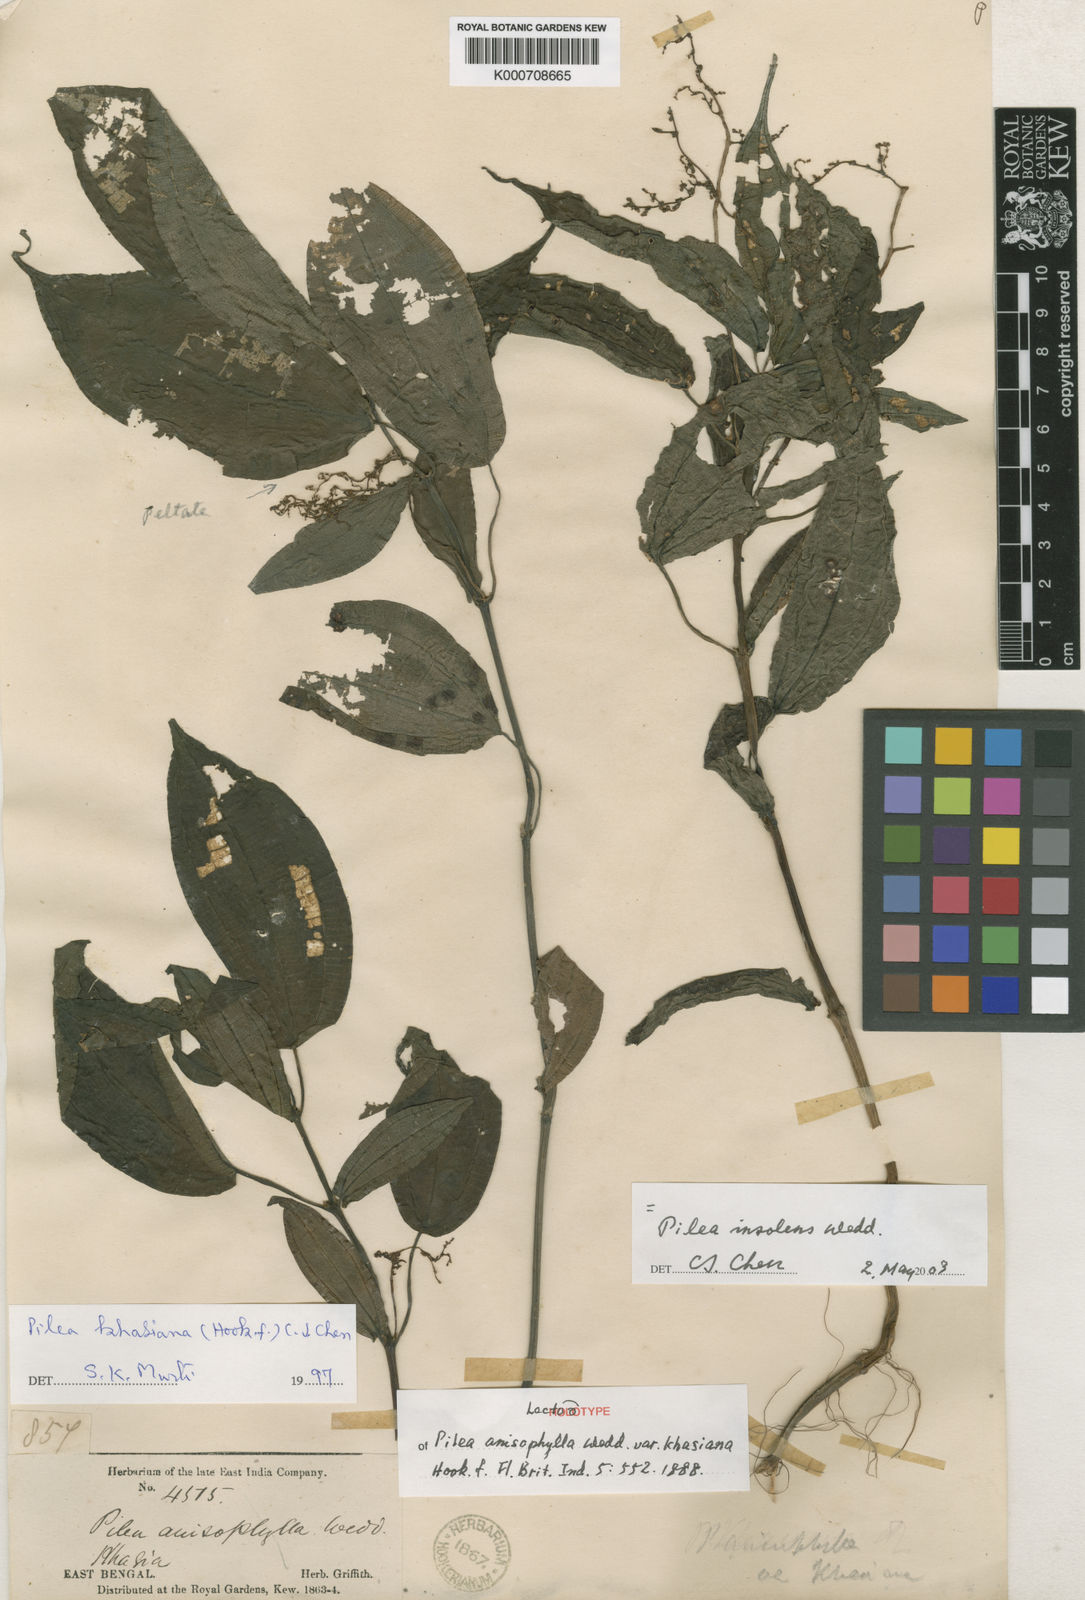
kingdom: Plantae
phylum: Tracheophyta
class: Magnoliopsida
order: Rosales
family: Urticaceae
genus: Pilea
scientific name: Pilea anisophylla
